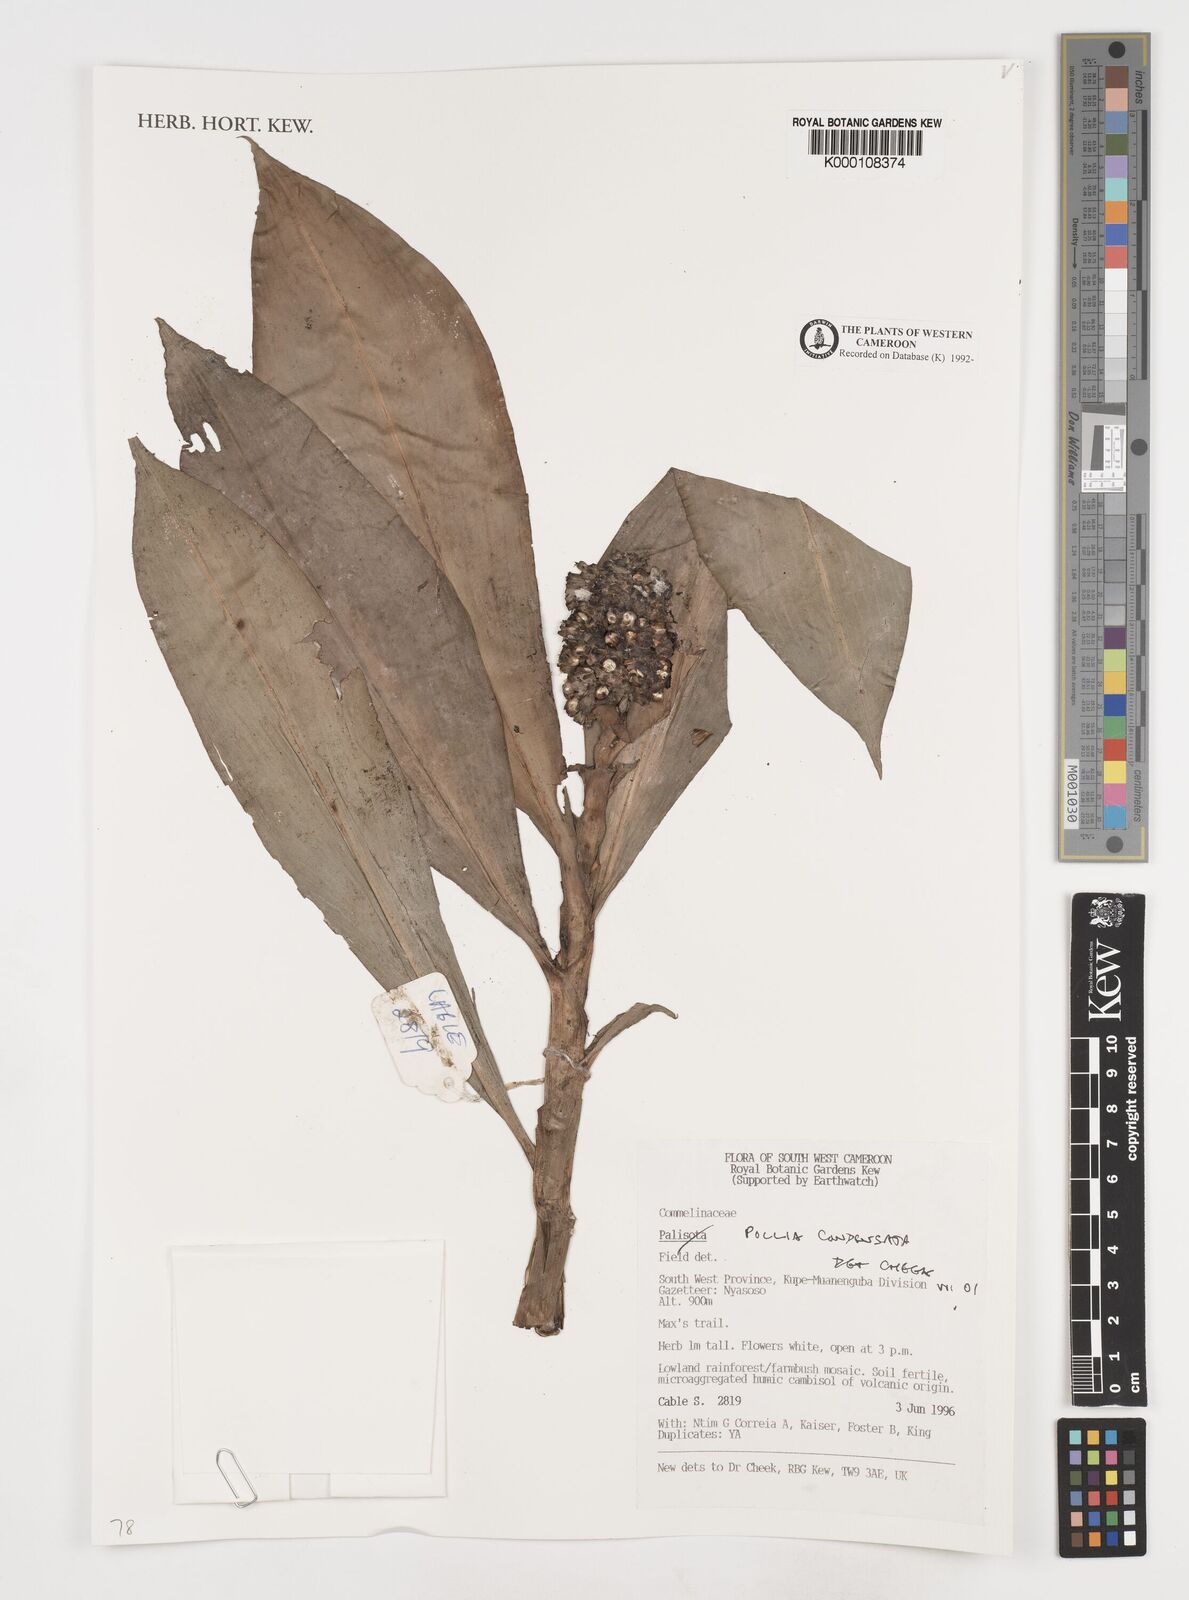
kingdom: Plantae
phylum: Tracheophyta
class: Liliopsida
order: Commelinales
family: Commelinaceae
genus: Pollia
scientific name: Pollia condensata
